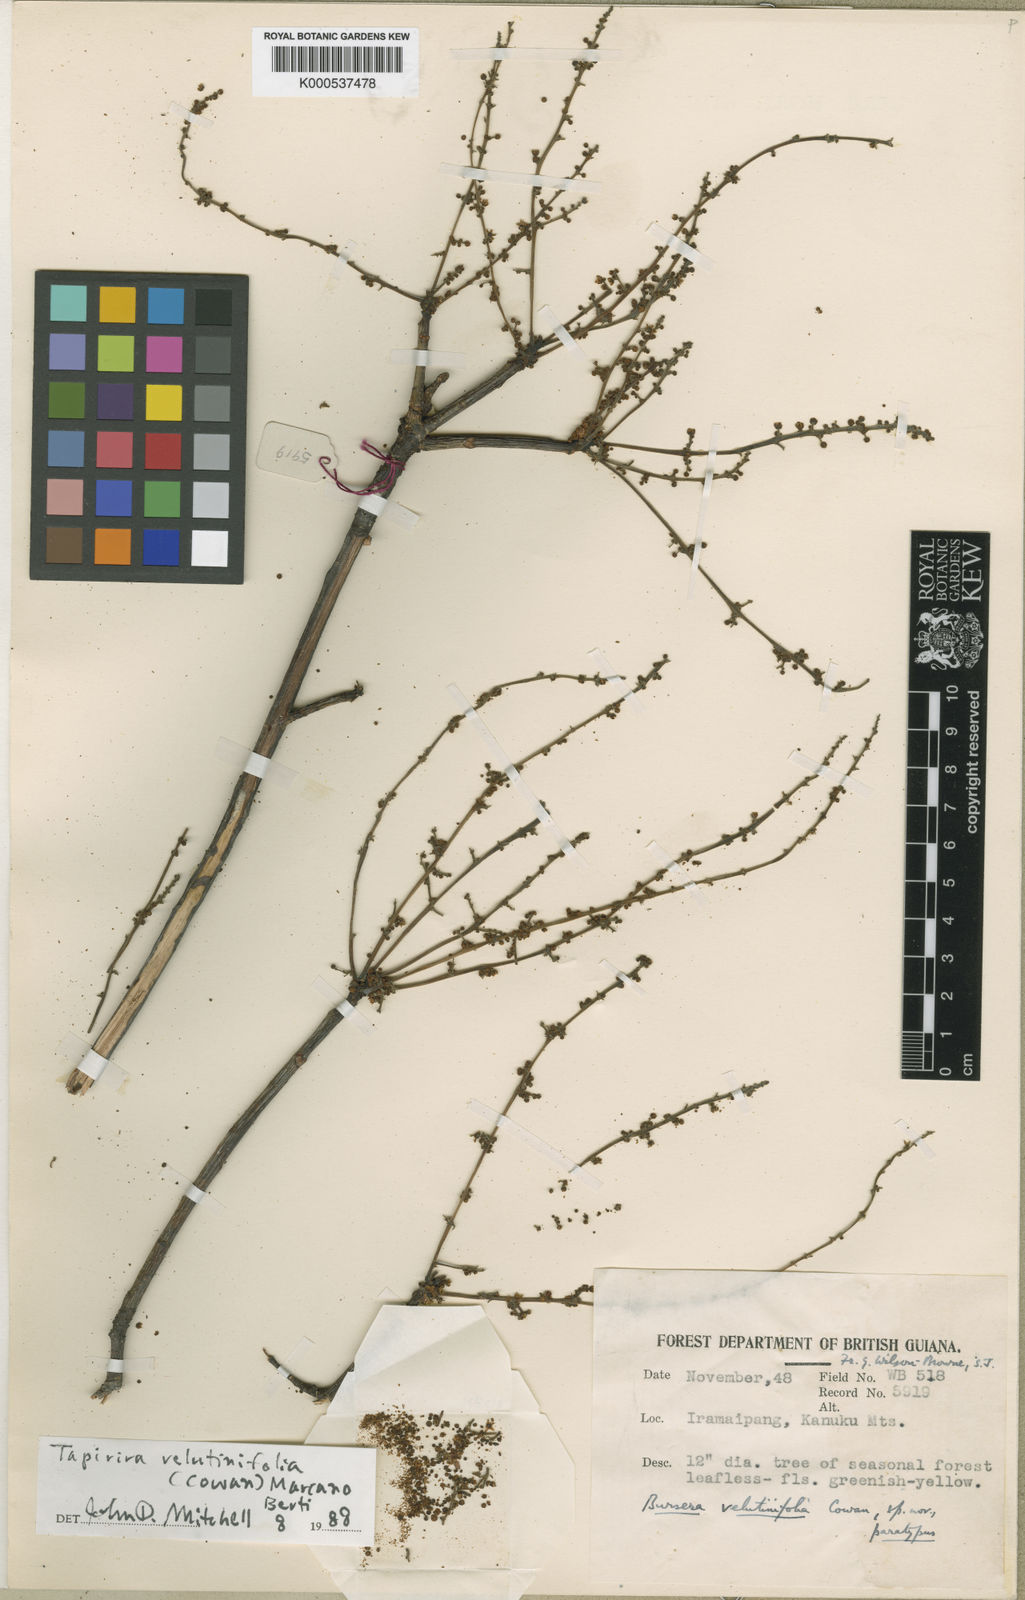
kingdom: Plantae
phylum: Tracheophyta
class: Magnoliopsida
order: Sapindales
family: Anacardiaceae
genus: Cyrtocarpa
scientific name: Cyrtocarpa velutinifolia
